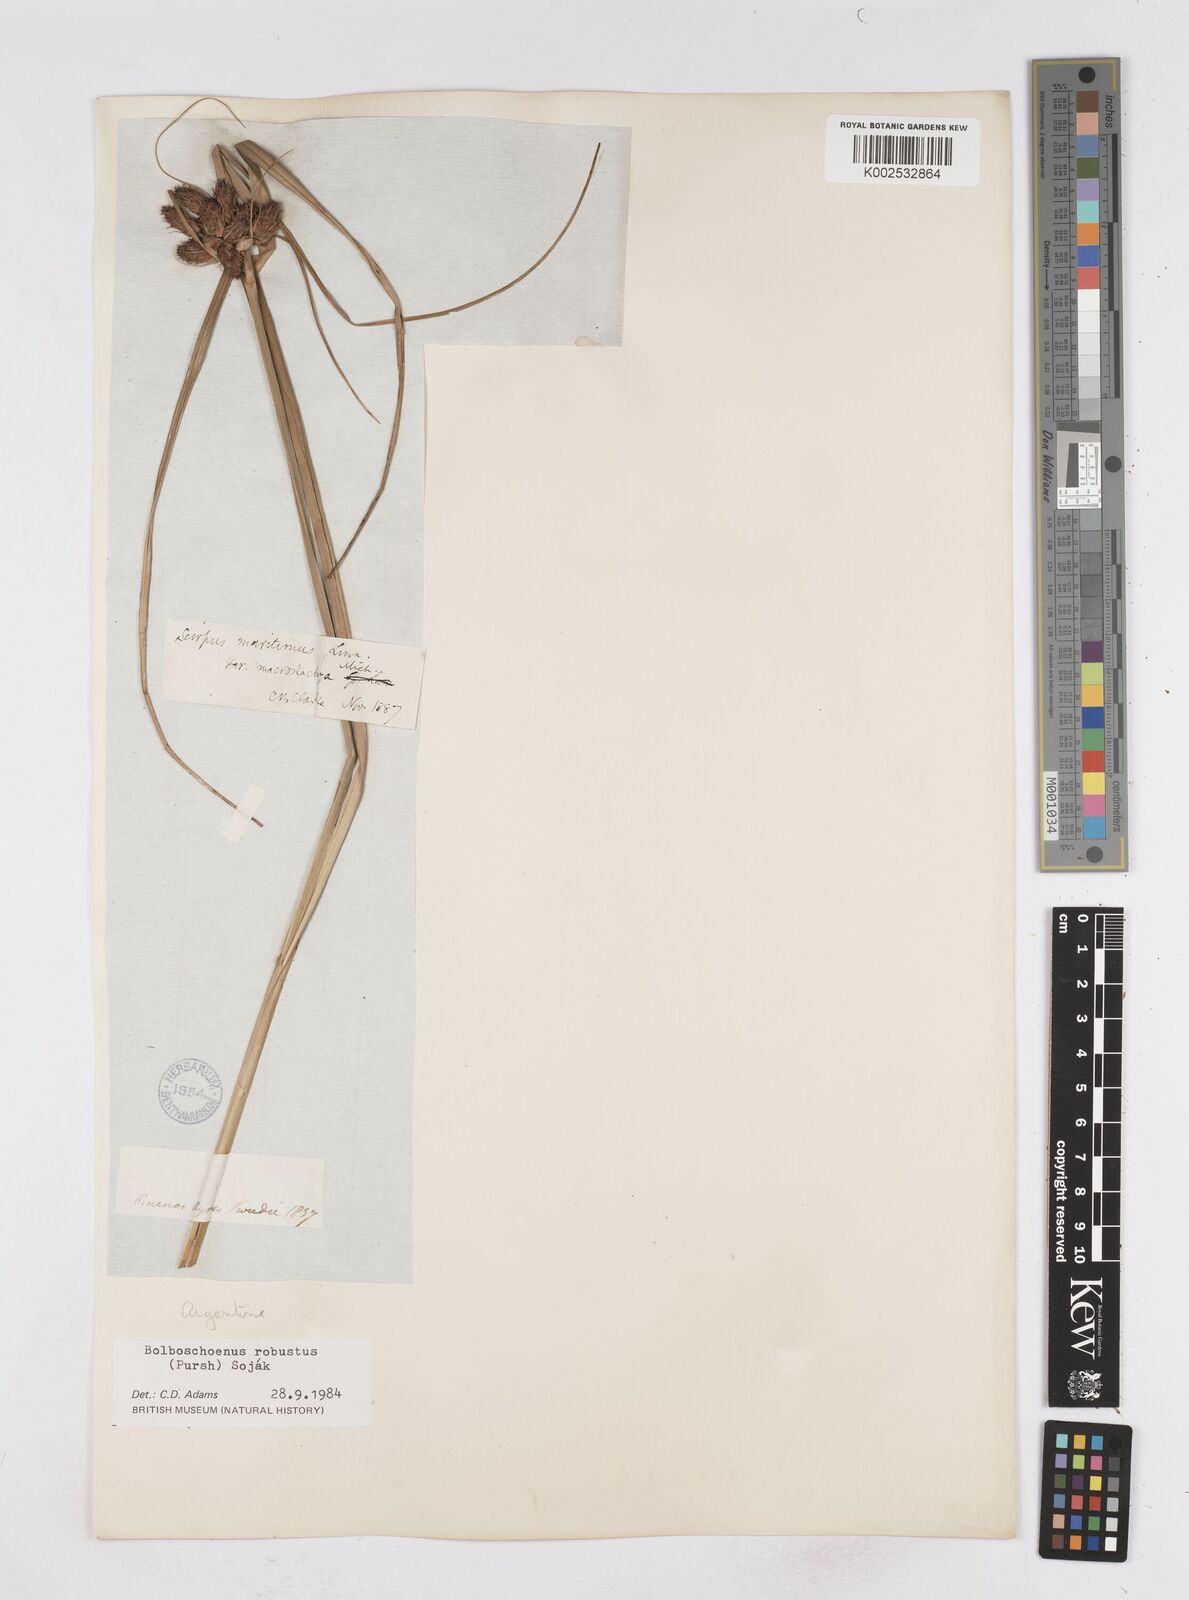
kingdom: Plantae
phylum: Tracheophyta
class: Liliopsida
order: Poales
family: Cyperaceae
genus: Bolboschoenus
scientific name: Bolboschoenus robustus
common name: Seacoast bulrush
